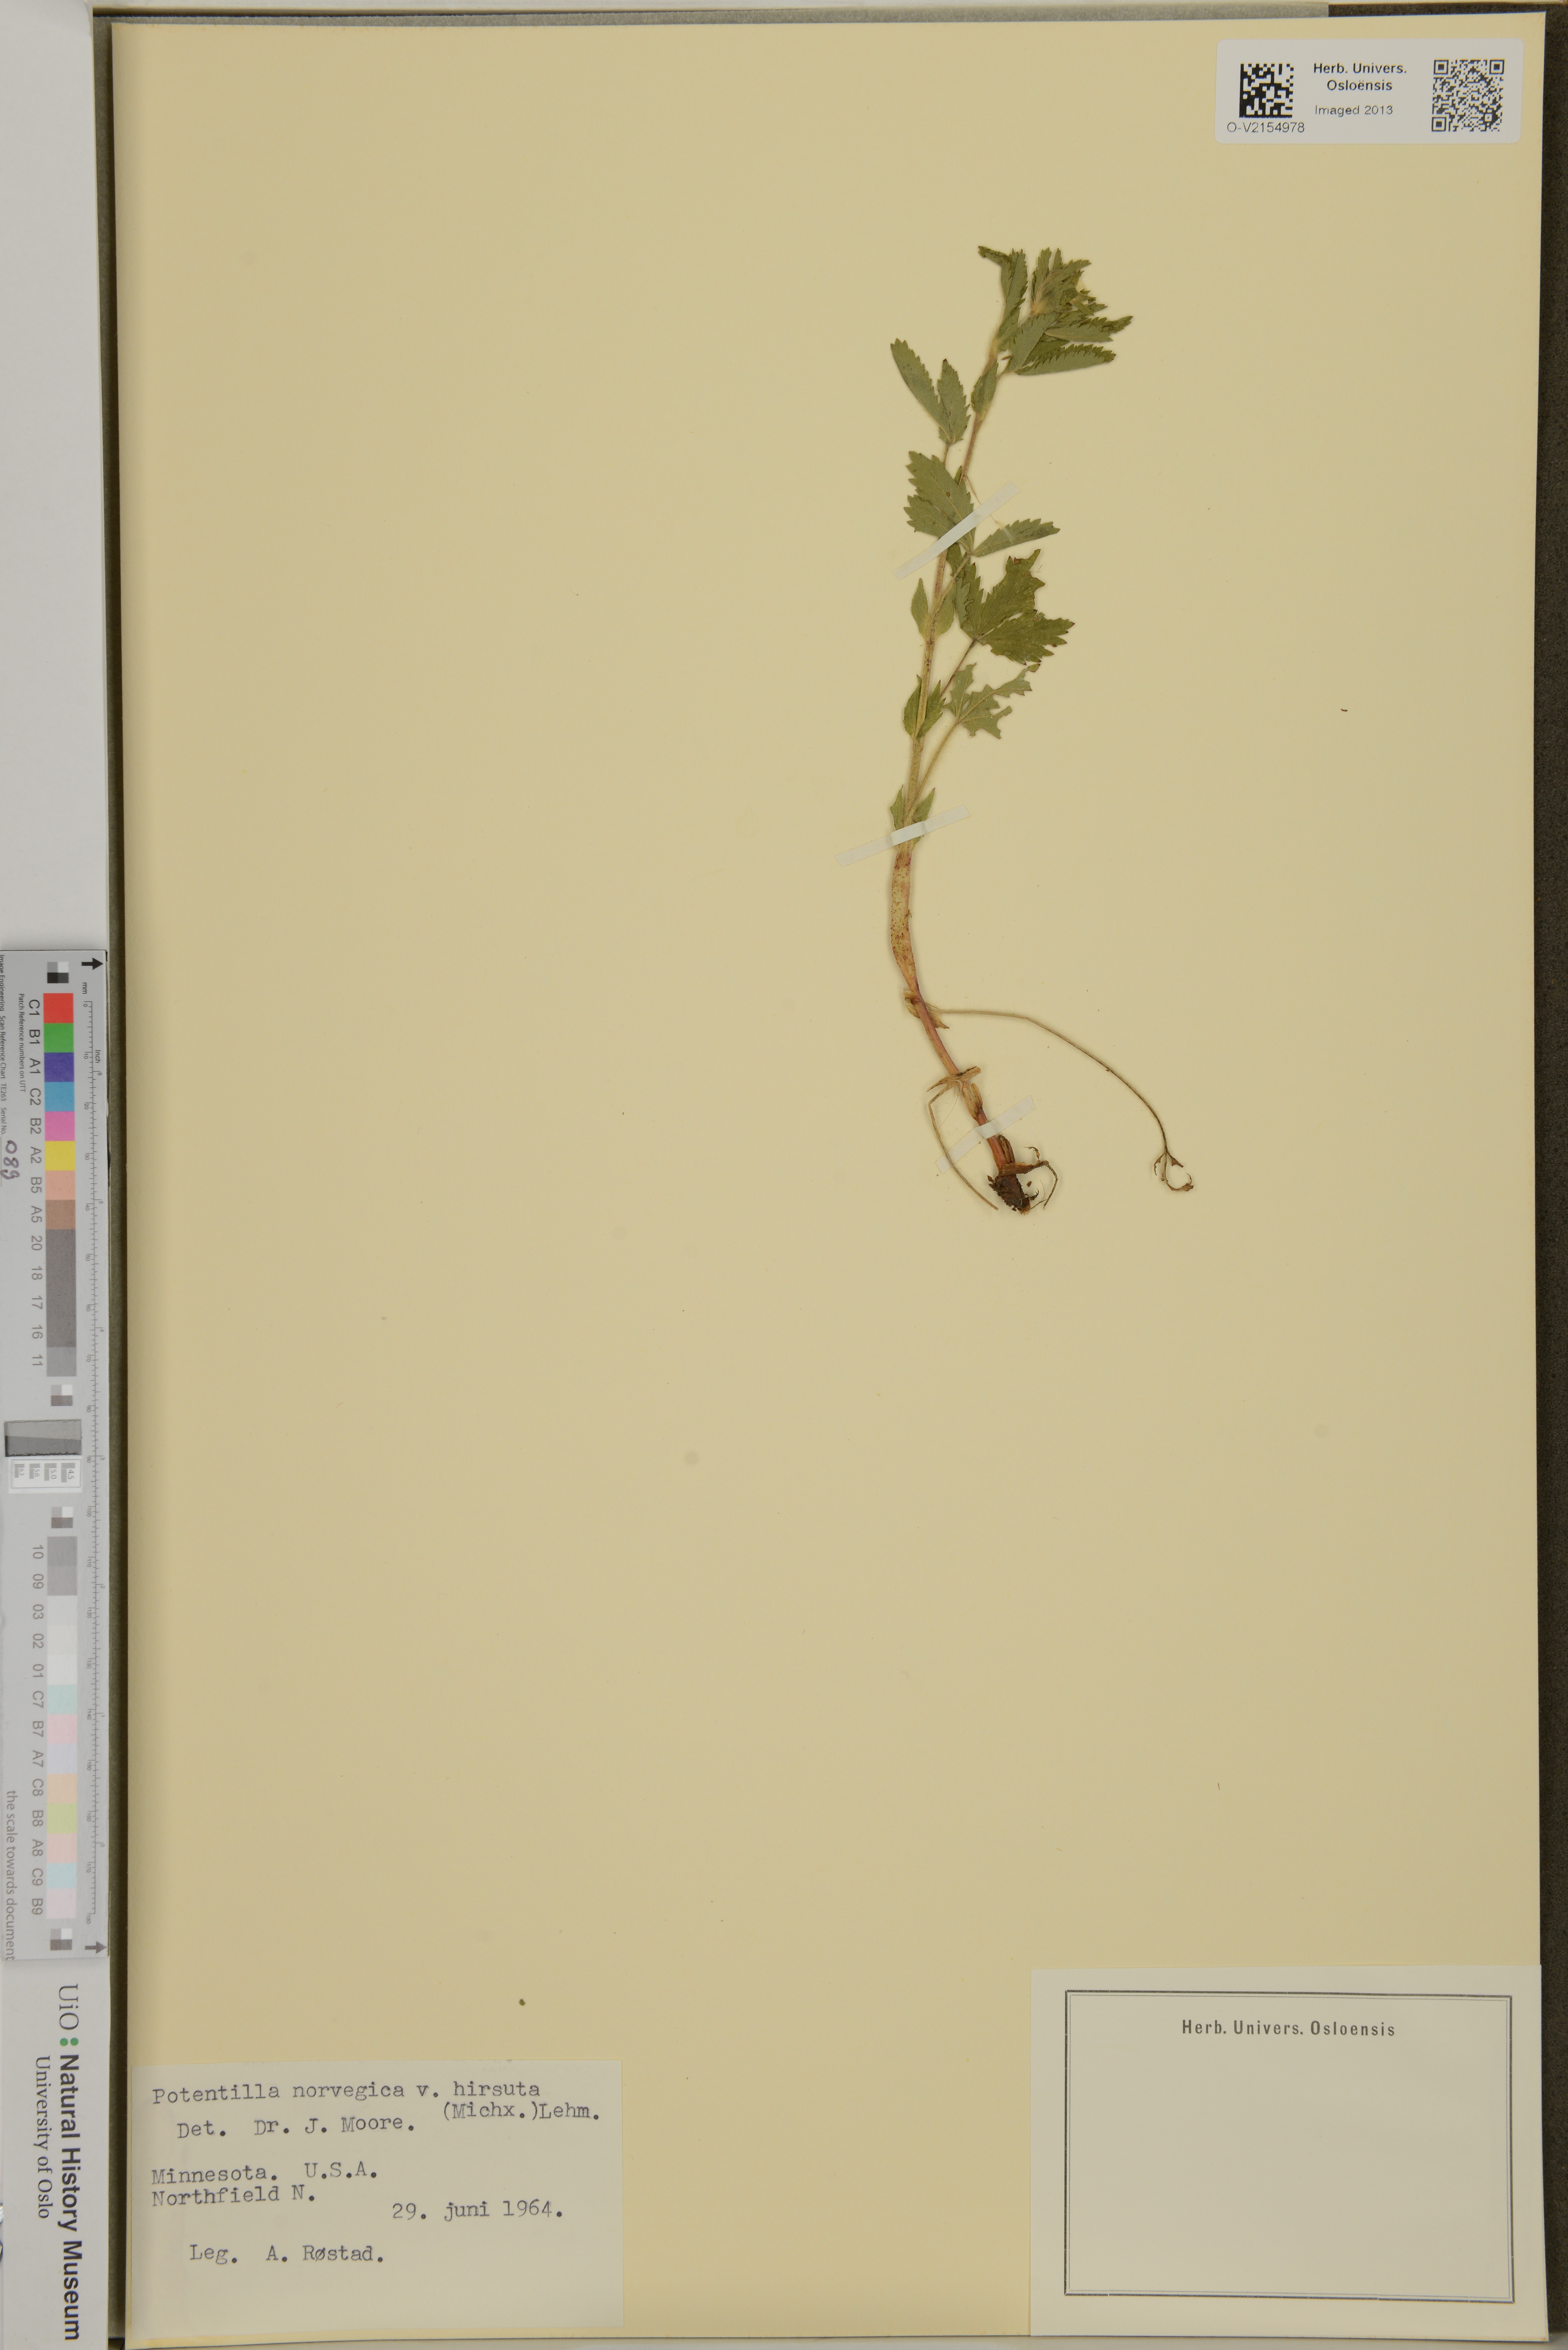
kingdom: Plantae
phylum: Tracheophyta
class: Magnoliopsida
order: Rosales
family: Rosaceae
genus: Potentilla
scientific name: Potentilla norvegica
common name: Ternate-leaved cinquefoil
